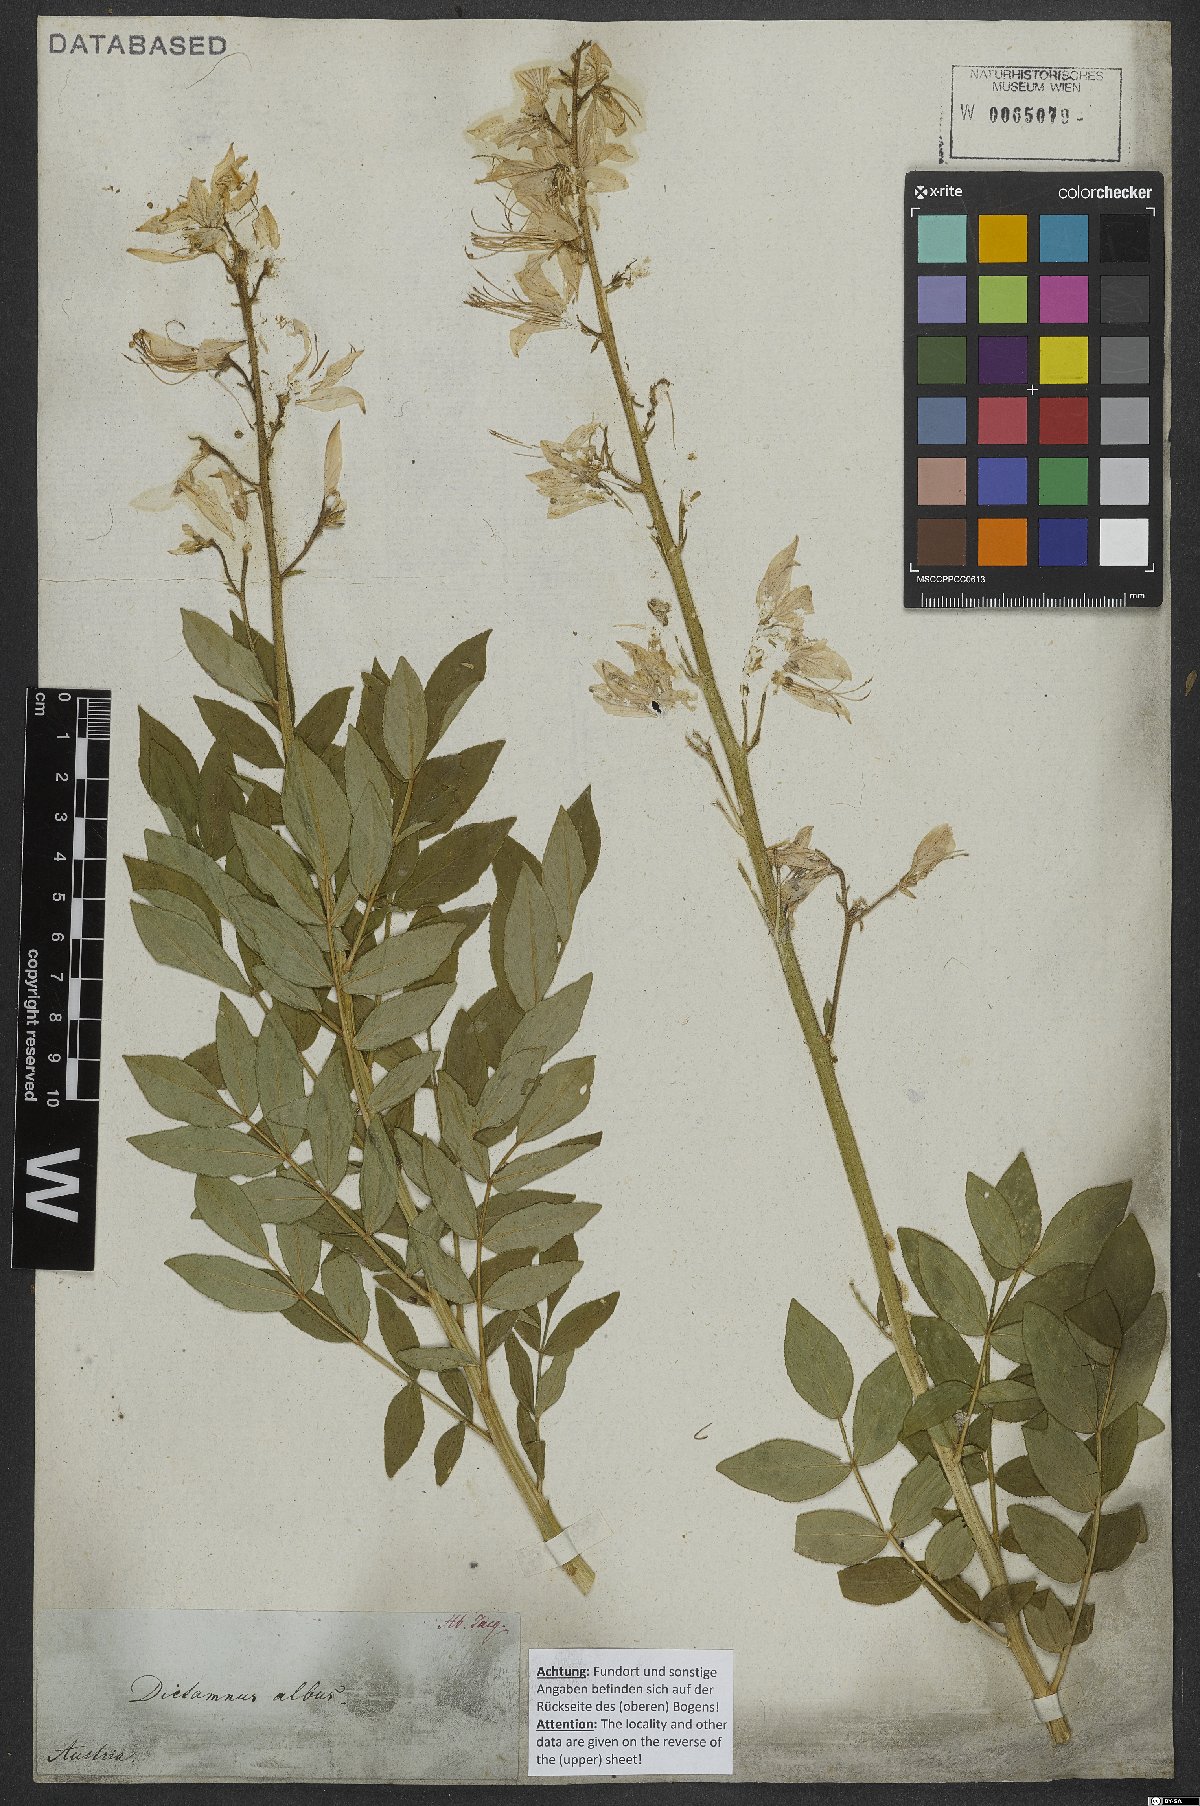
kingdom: Plantae
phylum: Tracheophyta
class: Magnoliopsida
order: Sapindales
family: Rutaceae
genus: Dictamnus
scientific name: Dictamnus albus
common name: Gasplant
